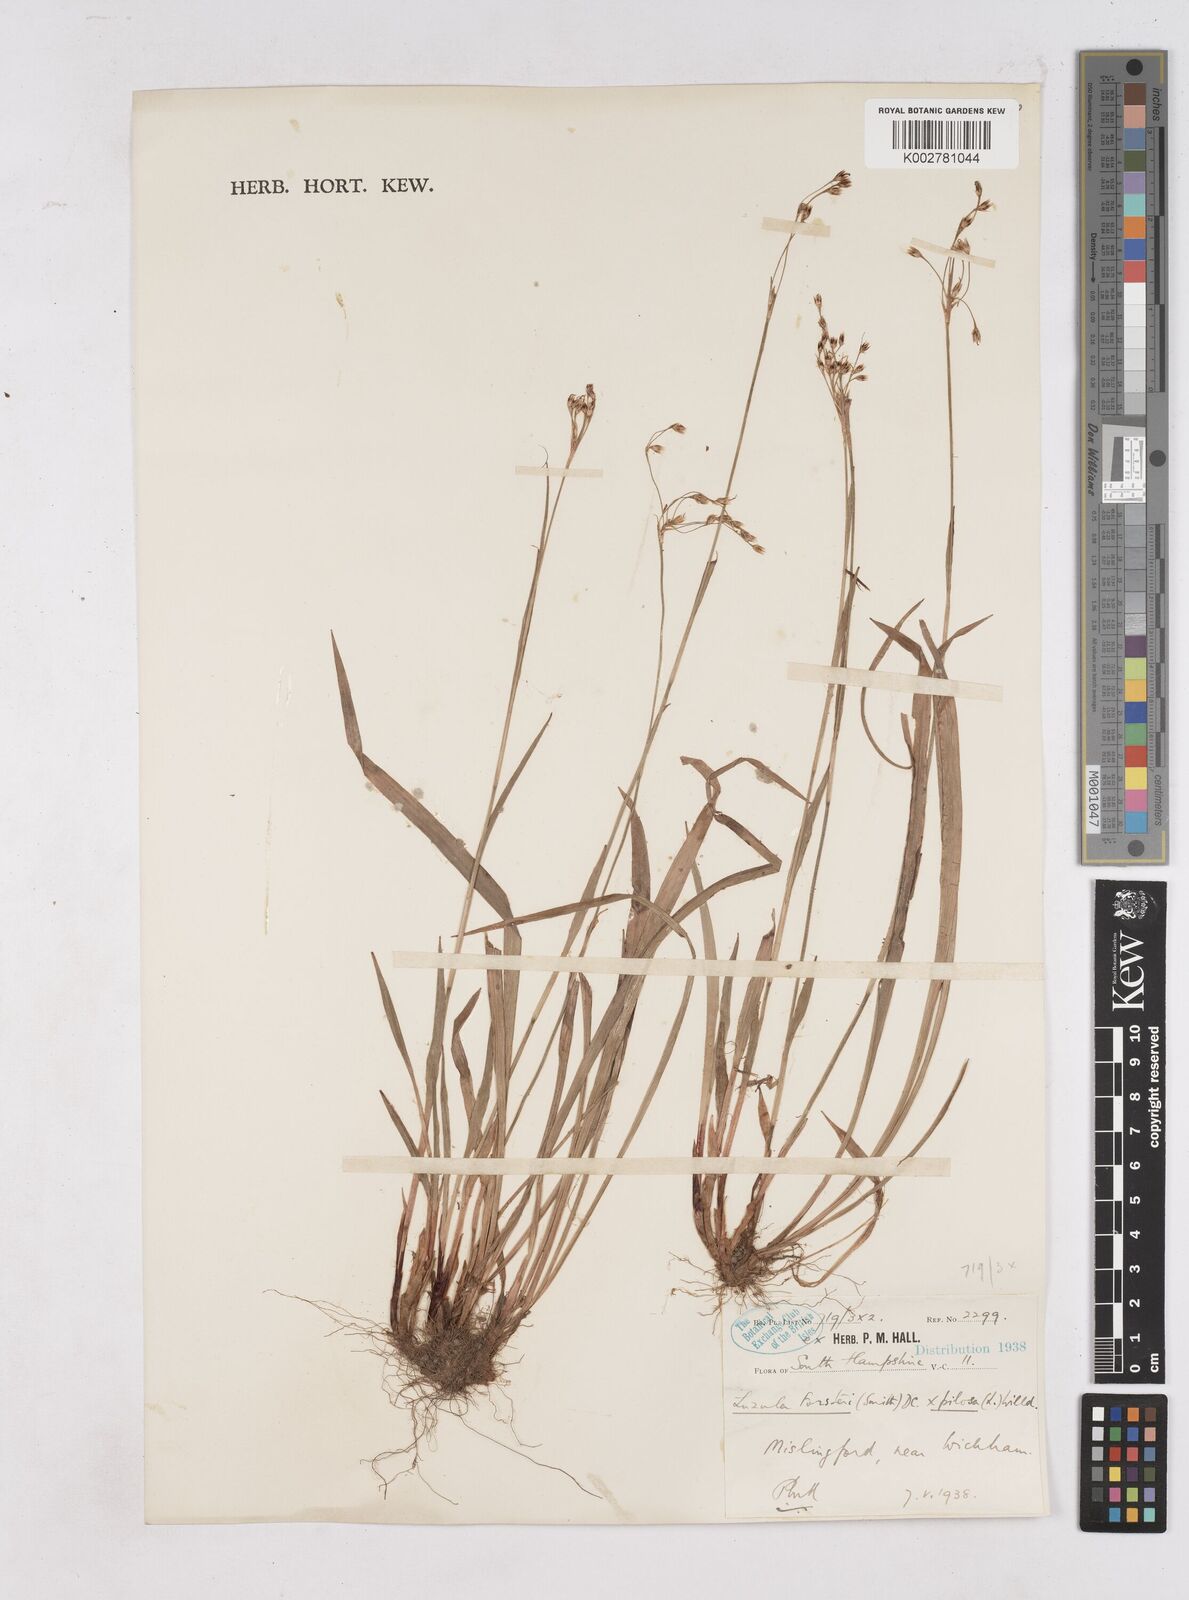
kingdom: Plantae
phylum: Tracheophyta
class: Liliopsida
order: Poales
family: Juncaceae
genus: Luzula
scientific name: Luzula forsteri
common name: Southern wood-rush
